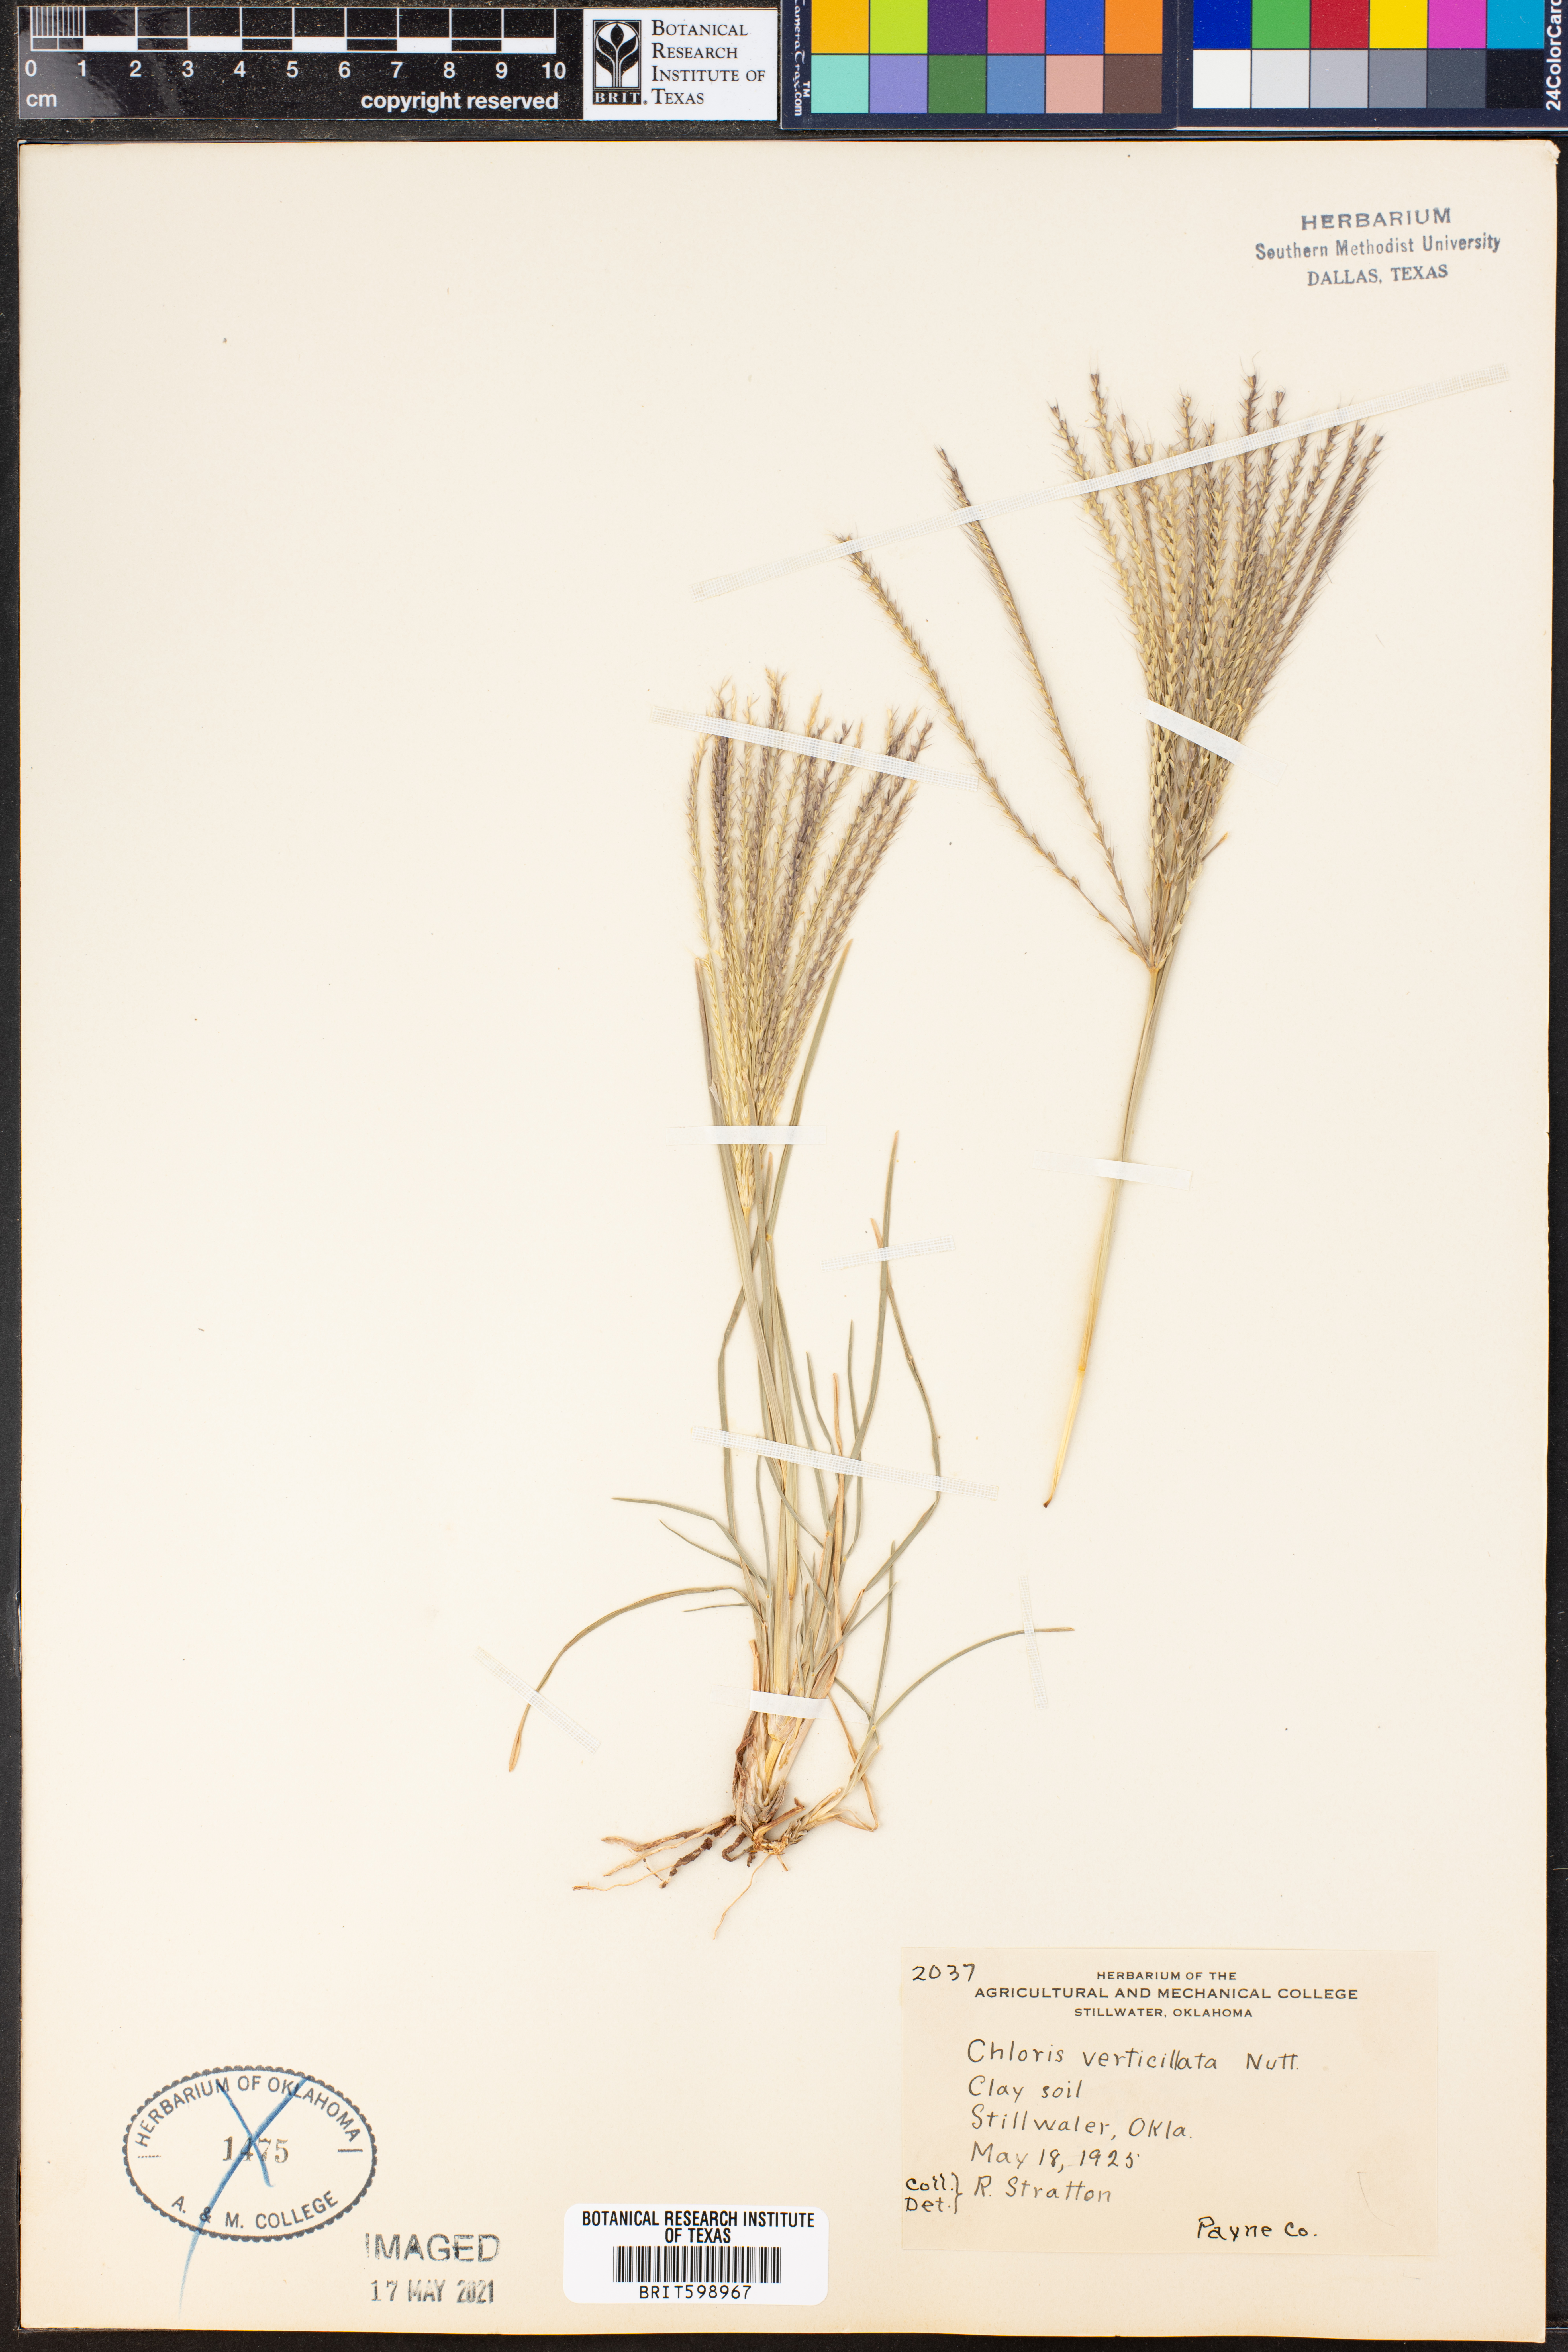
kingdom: Plantae
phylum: Tracheophyta
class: Liliopsida
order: Poales
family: Poaceae
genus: Chloris
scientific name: Chloris verticillata
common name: Tumble windmill grass
